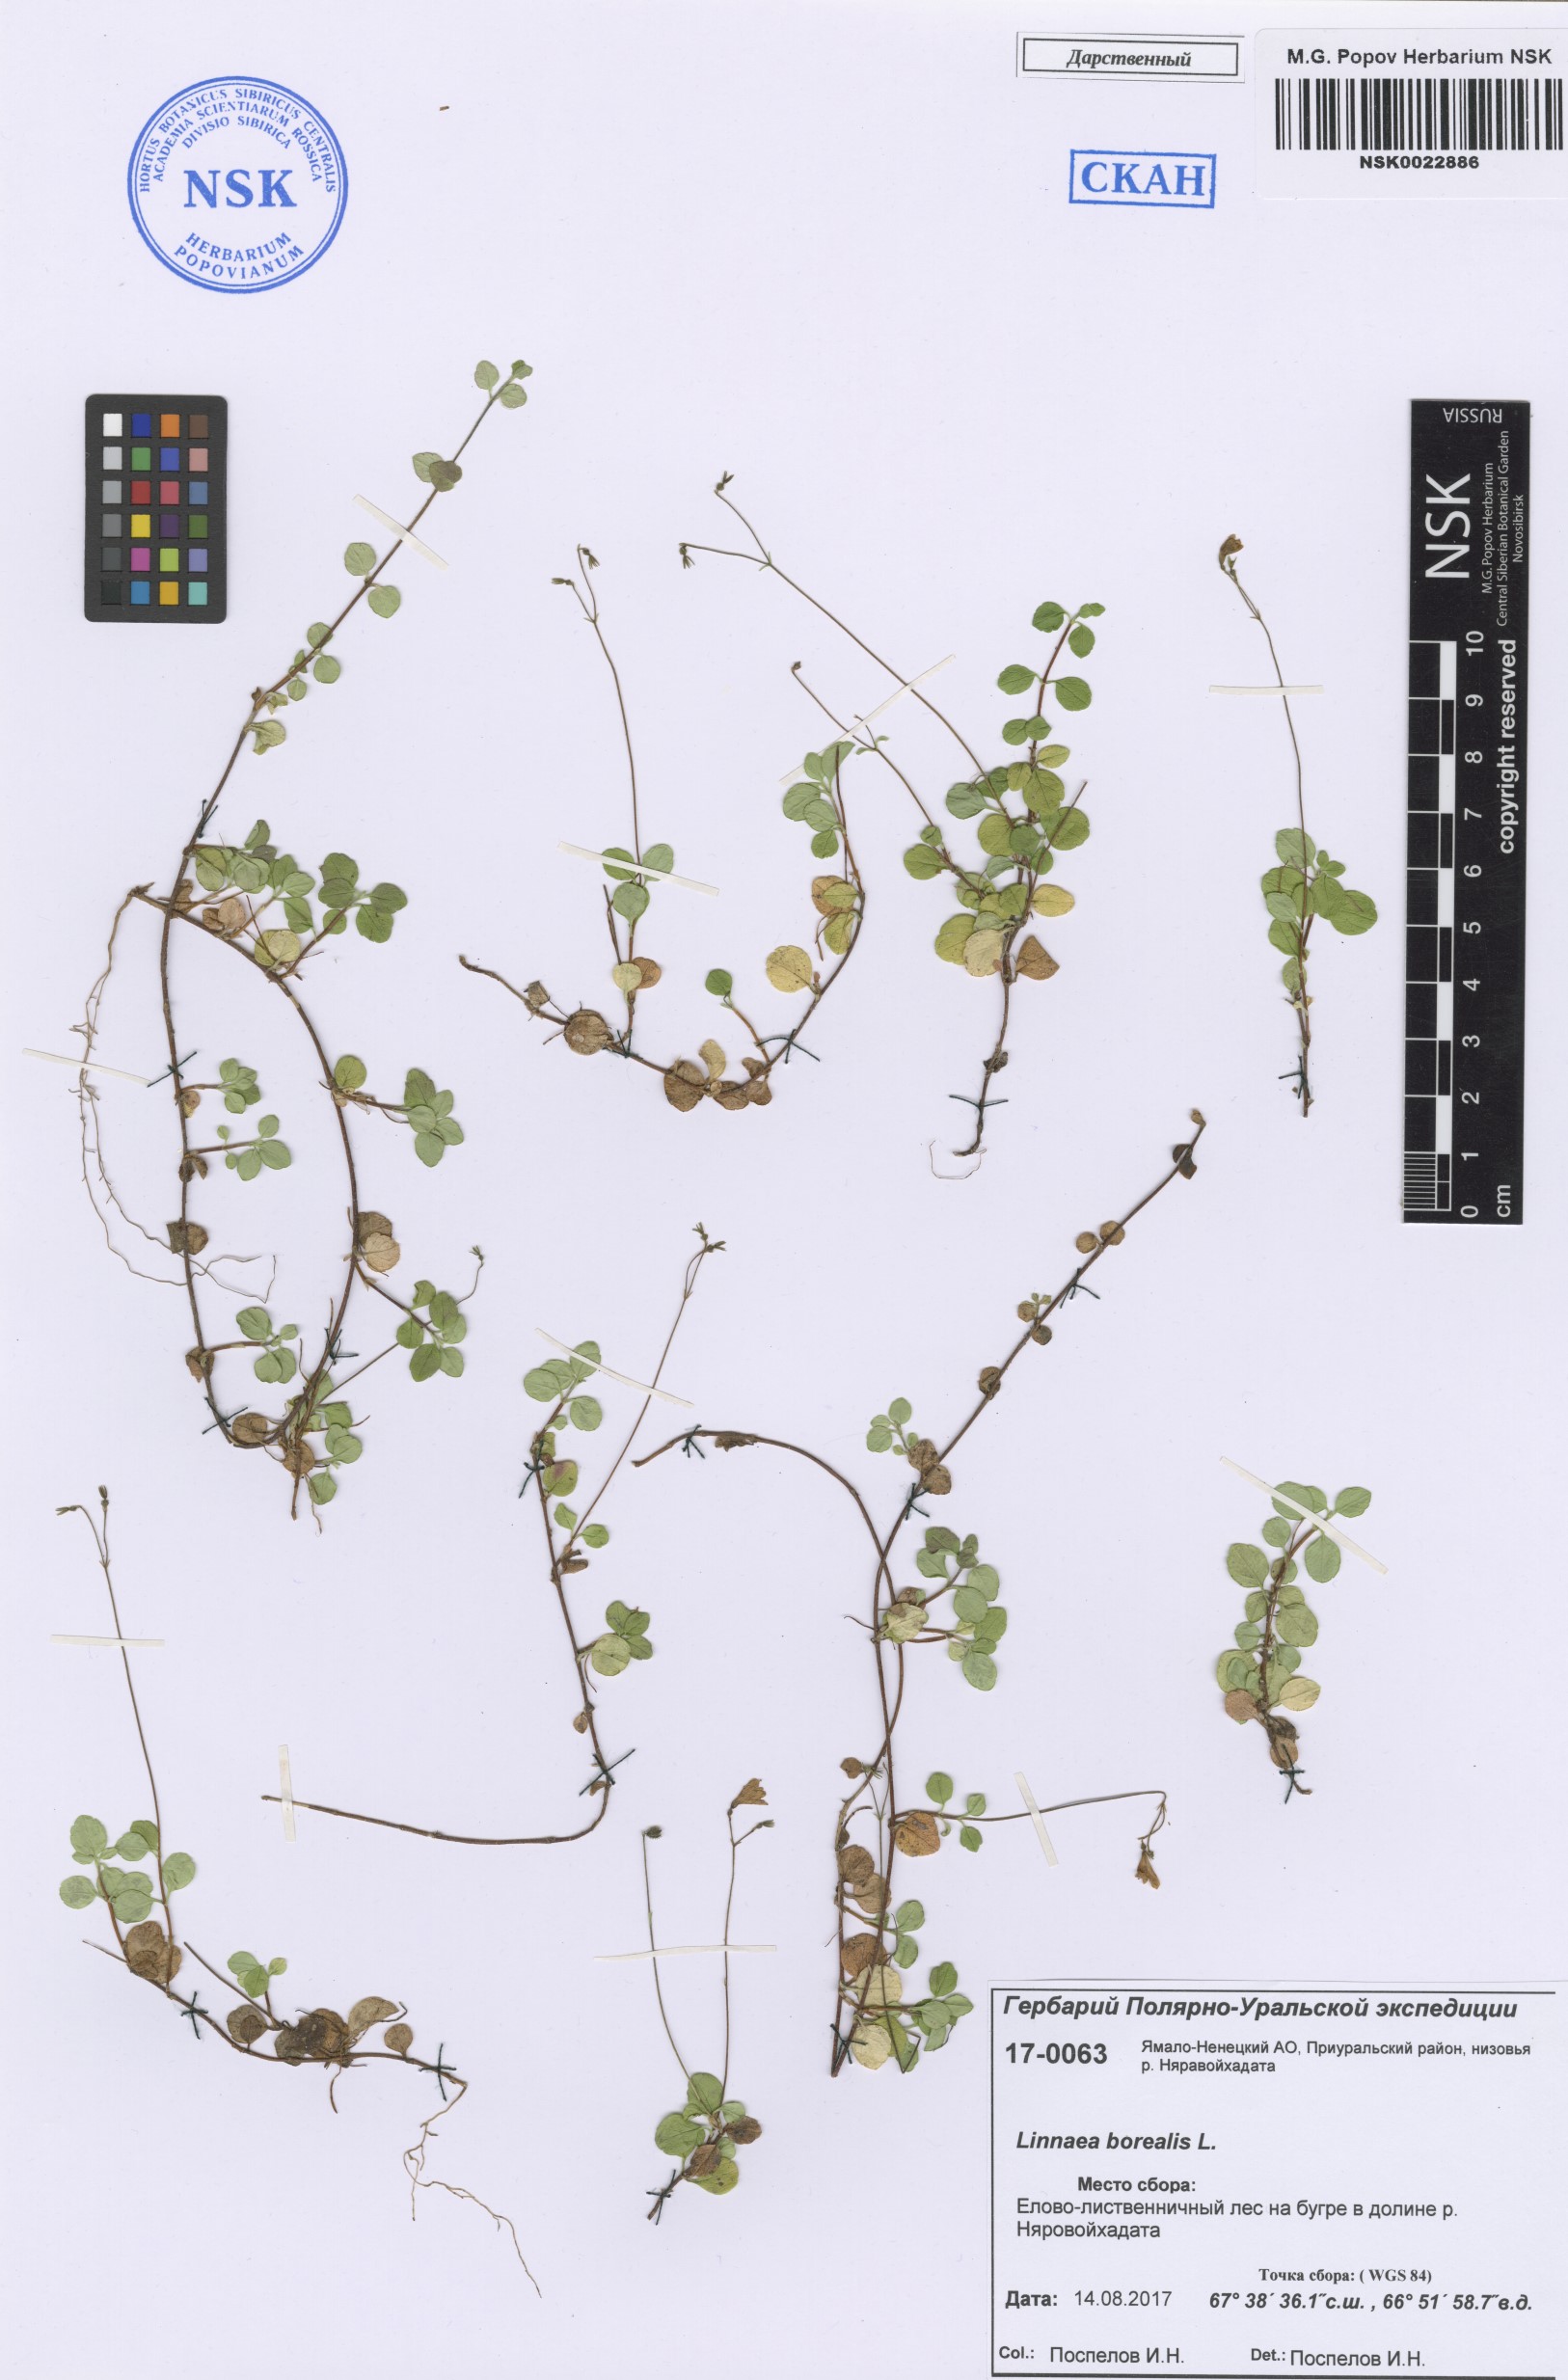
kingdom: Plantae
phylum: Tracheophyta
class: Magnoliopsida
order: Dipsacales
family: Caprifoliaceae
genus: Linnaea
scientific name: Linnaea borealis
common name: Twinflower
